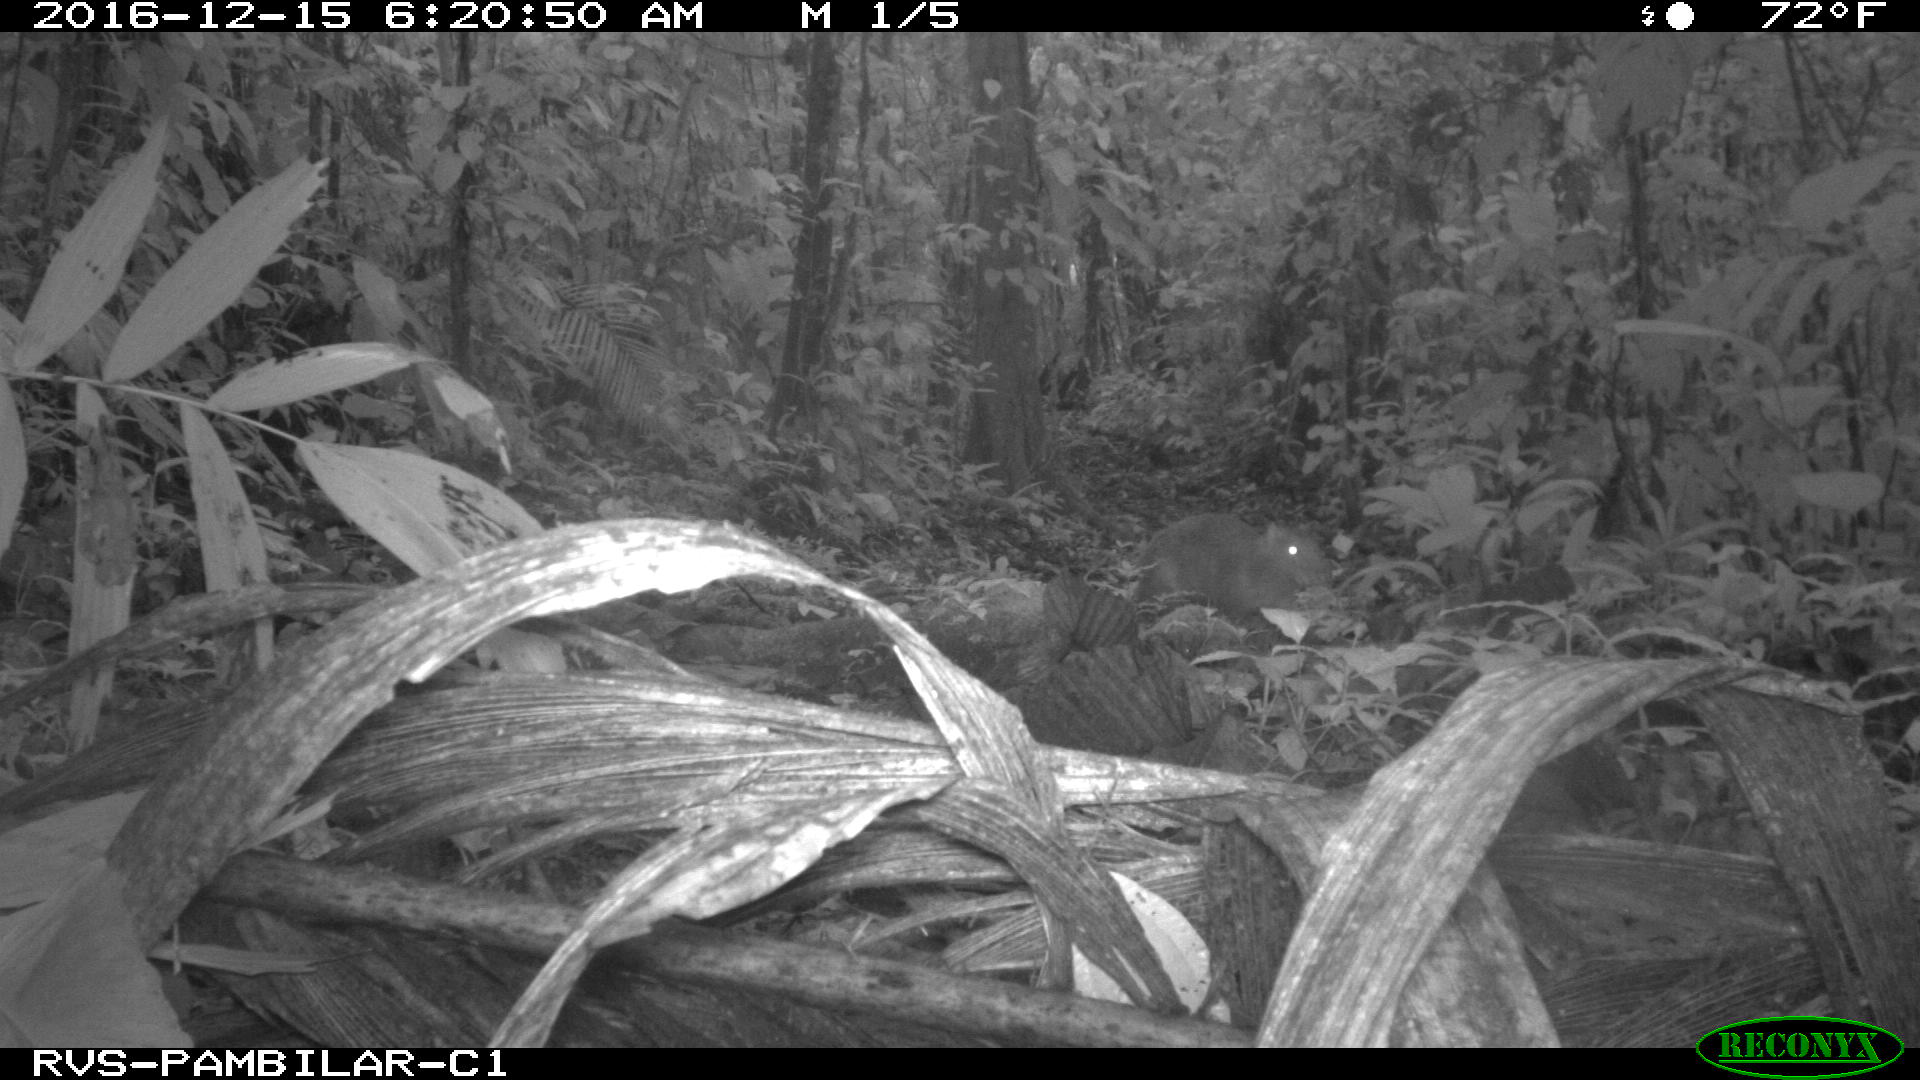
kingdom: Animalia
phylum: Chordata
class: Mammalia
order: Rodentia
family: Dasyproctidae
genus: Dasyprocta
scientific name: Dasyprocta punctata
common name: Central american agouti
